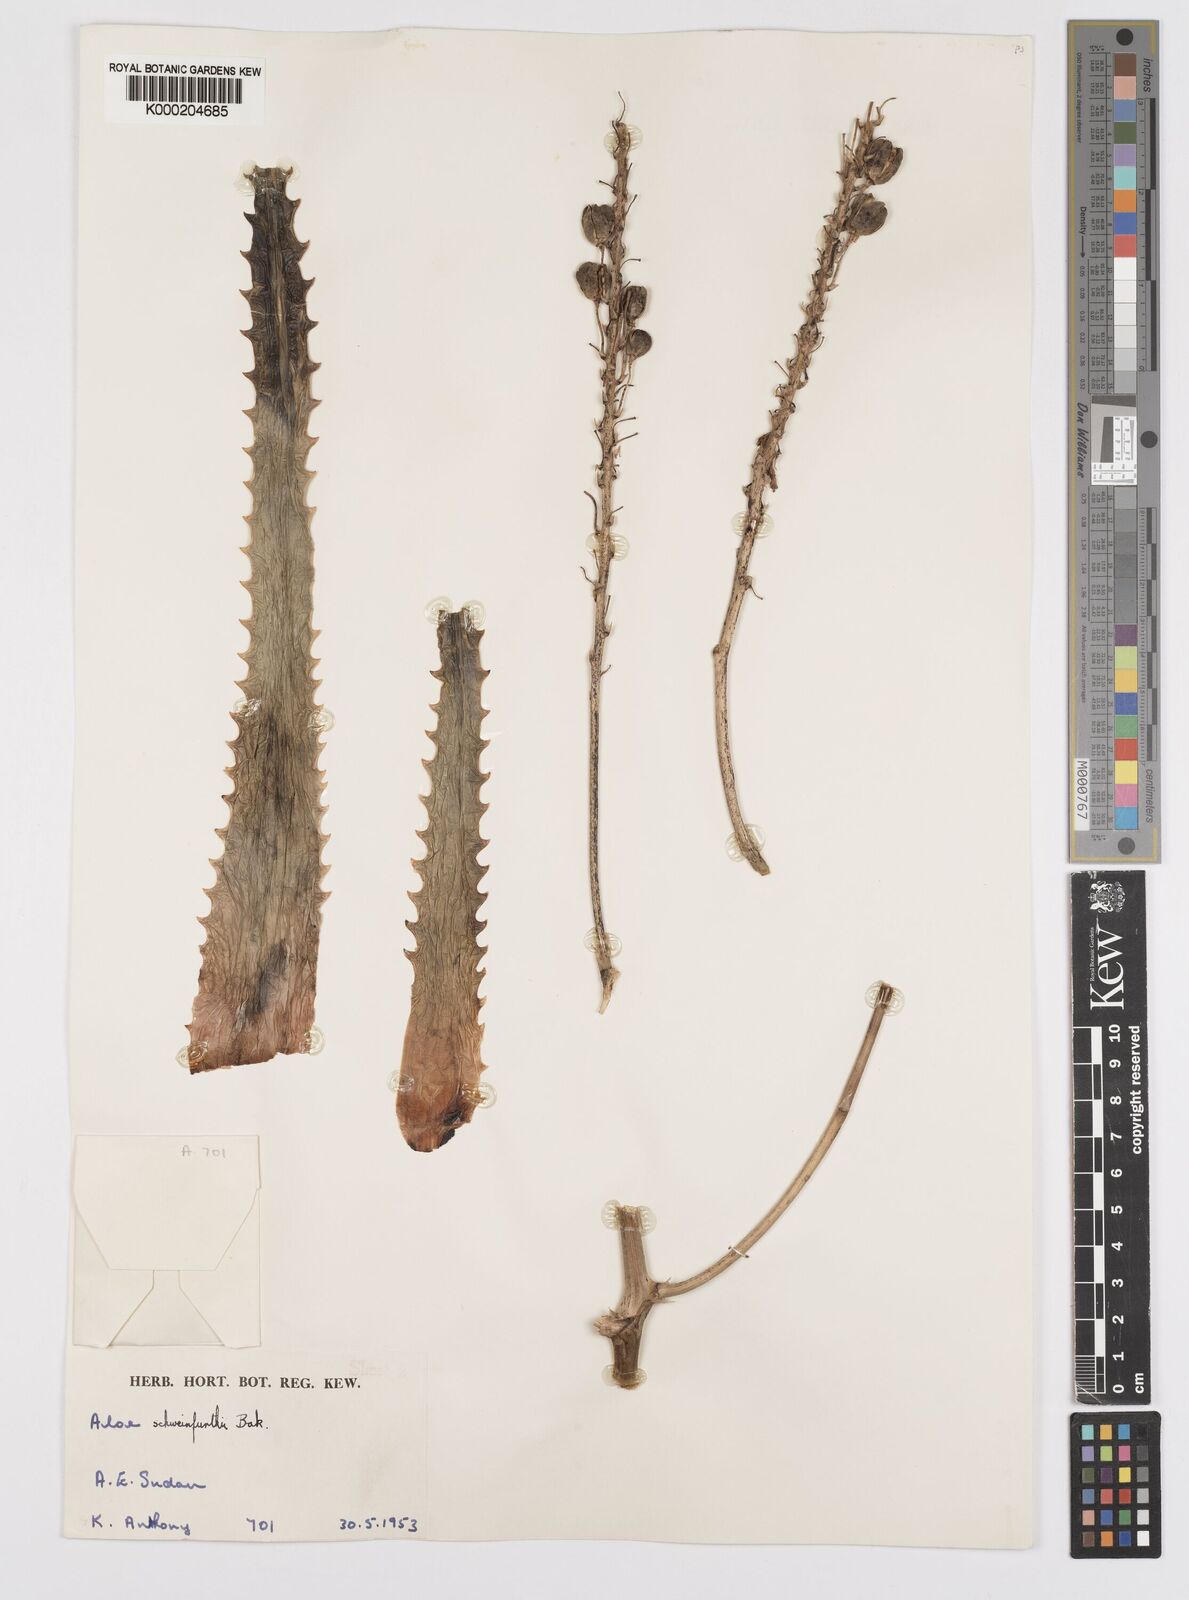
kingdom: Plantae
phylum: Tracheophyta
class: Liliopsida
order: Asparagales
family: Asphodelaceae
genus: Aloe
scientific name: Aloe schweinfurthii
